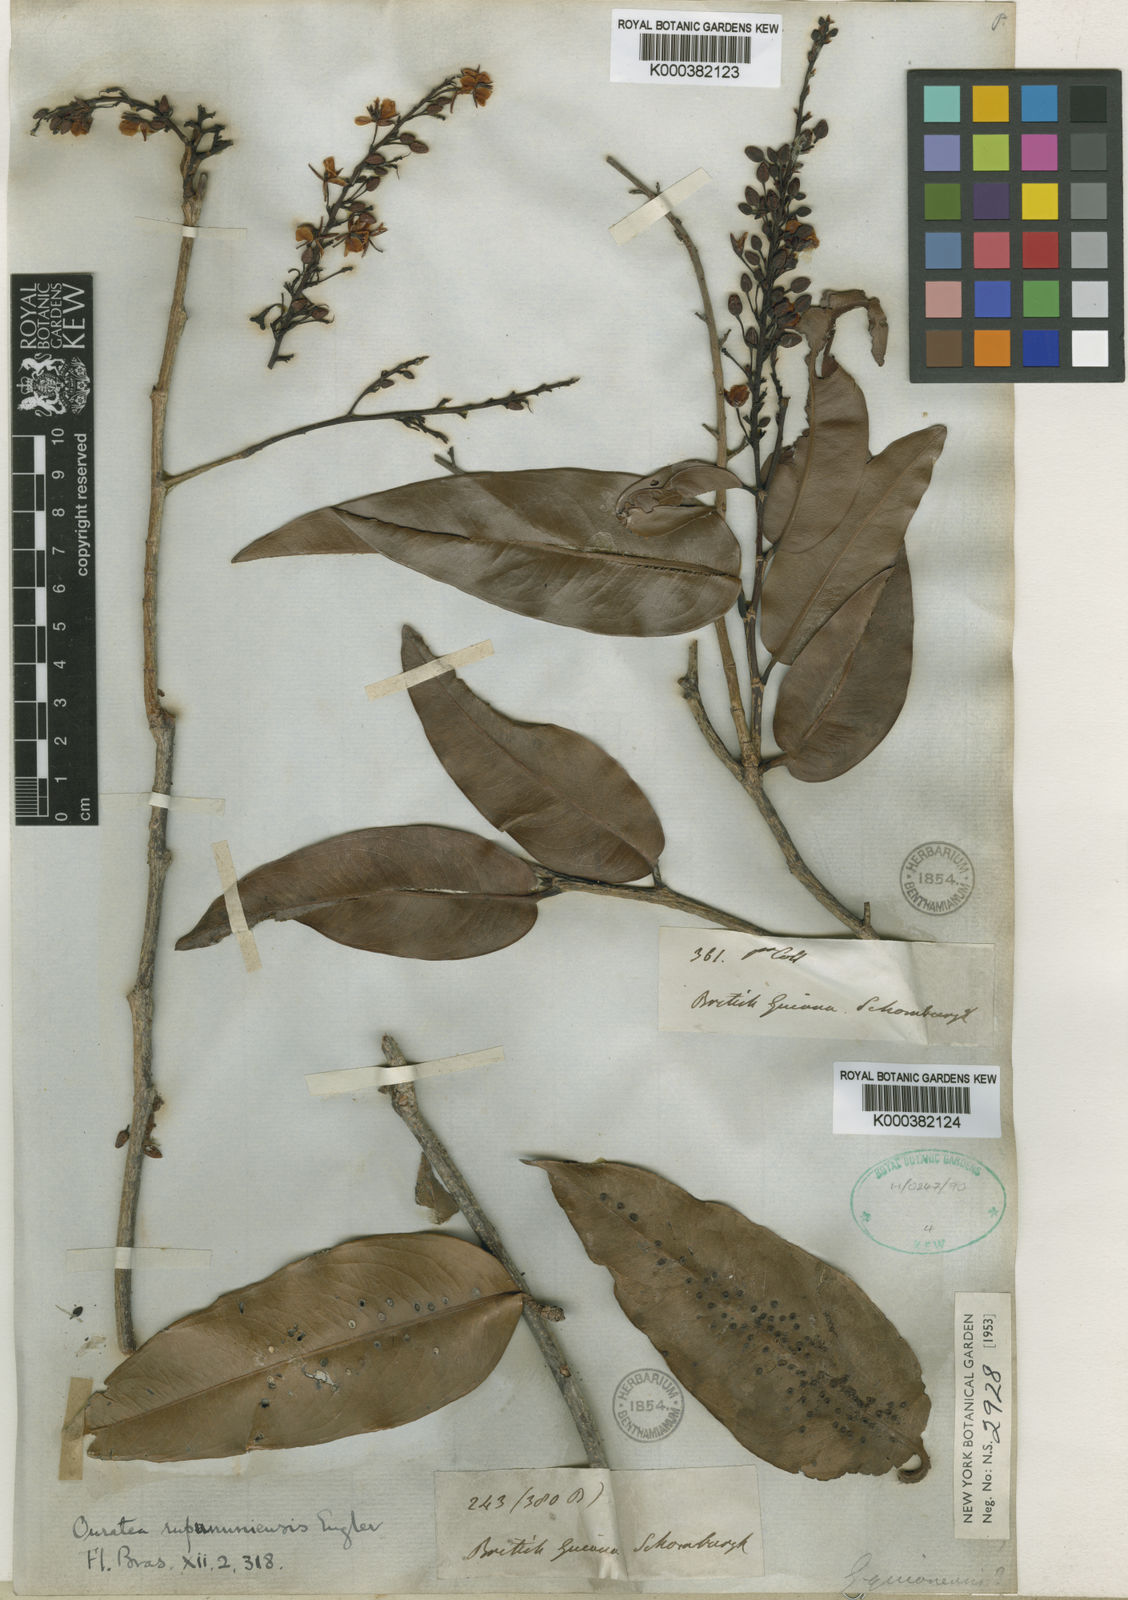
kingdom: Plantae
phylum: Tracheophyta
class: Magnoliopsida
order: Malpighiales
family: Ochnaceae
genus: Ouratea
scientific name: Ouratea rupununiensis
